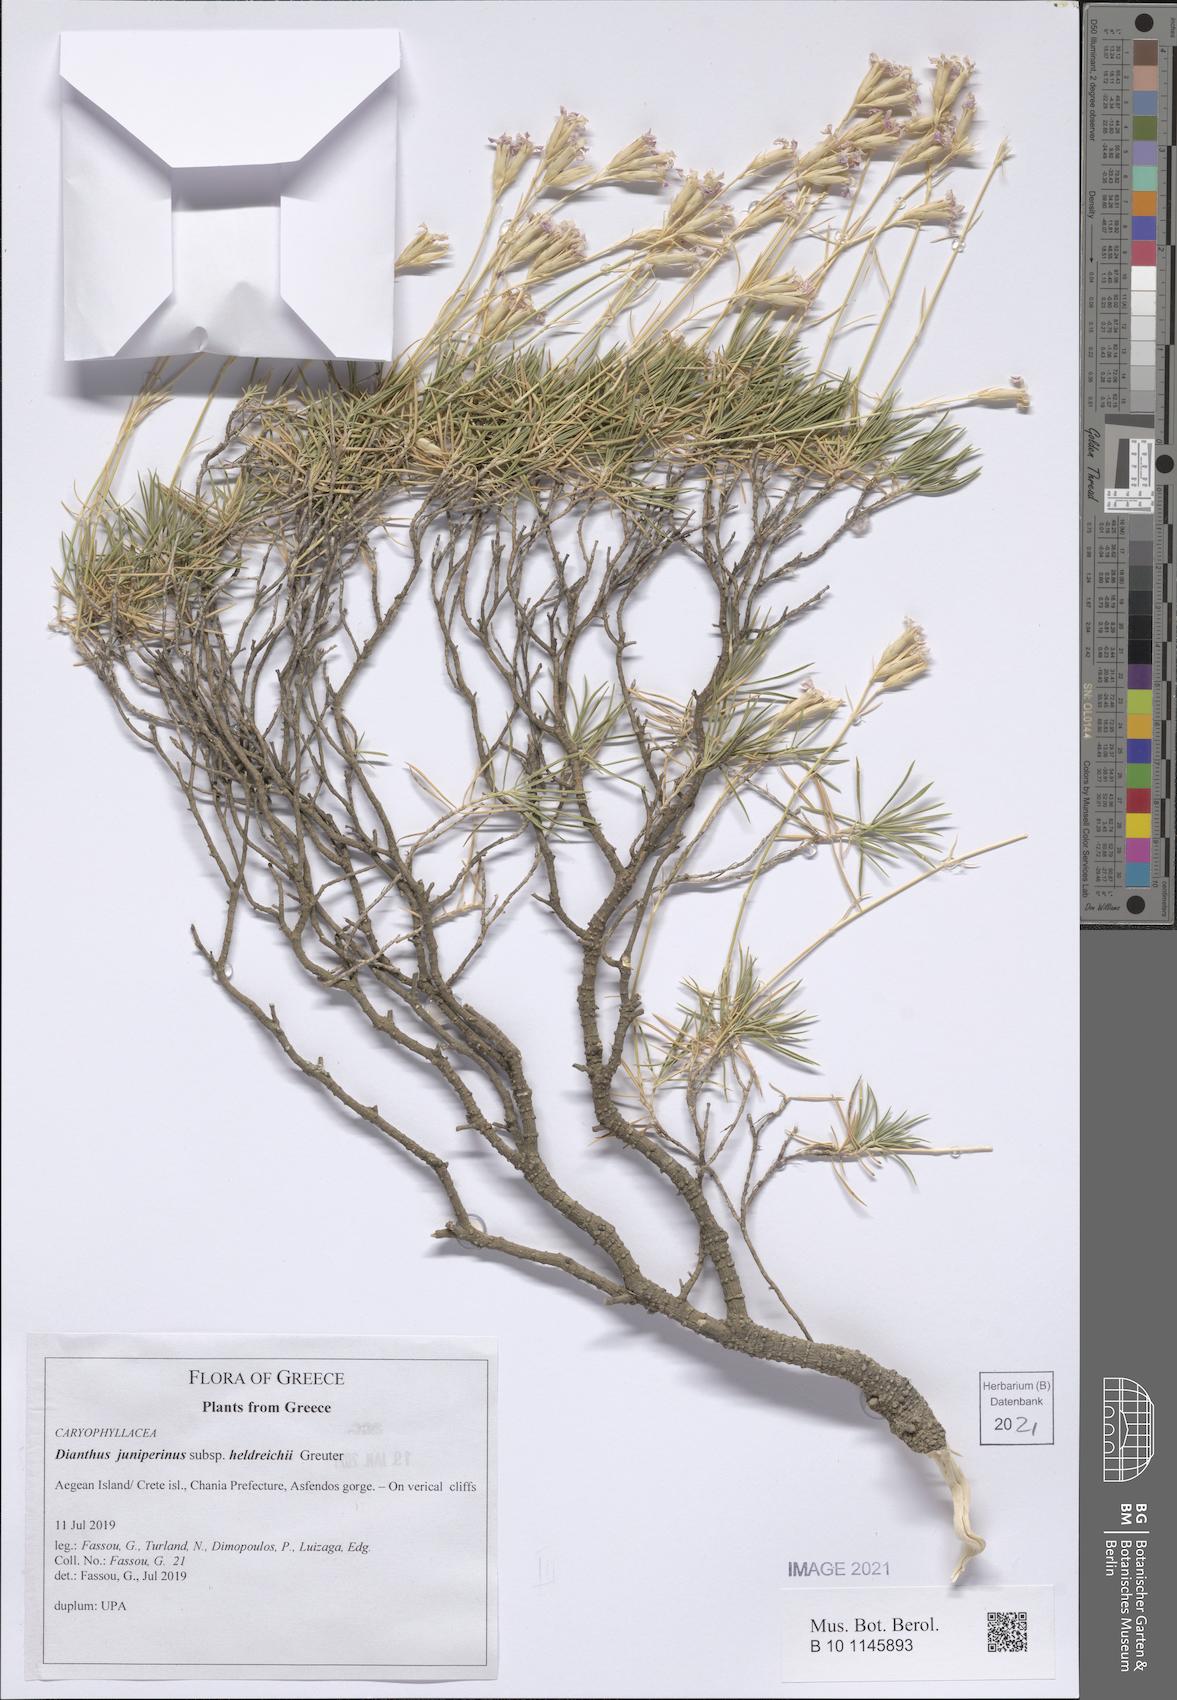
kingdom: Plantae
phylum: Tracheophyta
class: Magnoliopsida
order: Caryophyllales
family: Caryophyllaceae
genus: Dianthus
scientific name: Dianthus juniperinus
